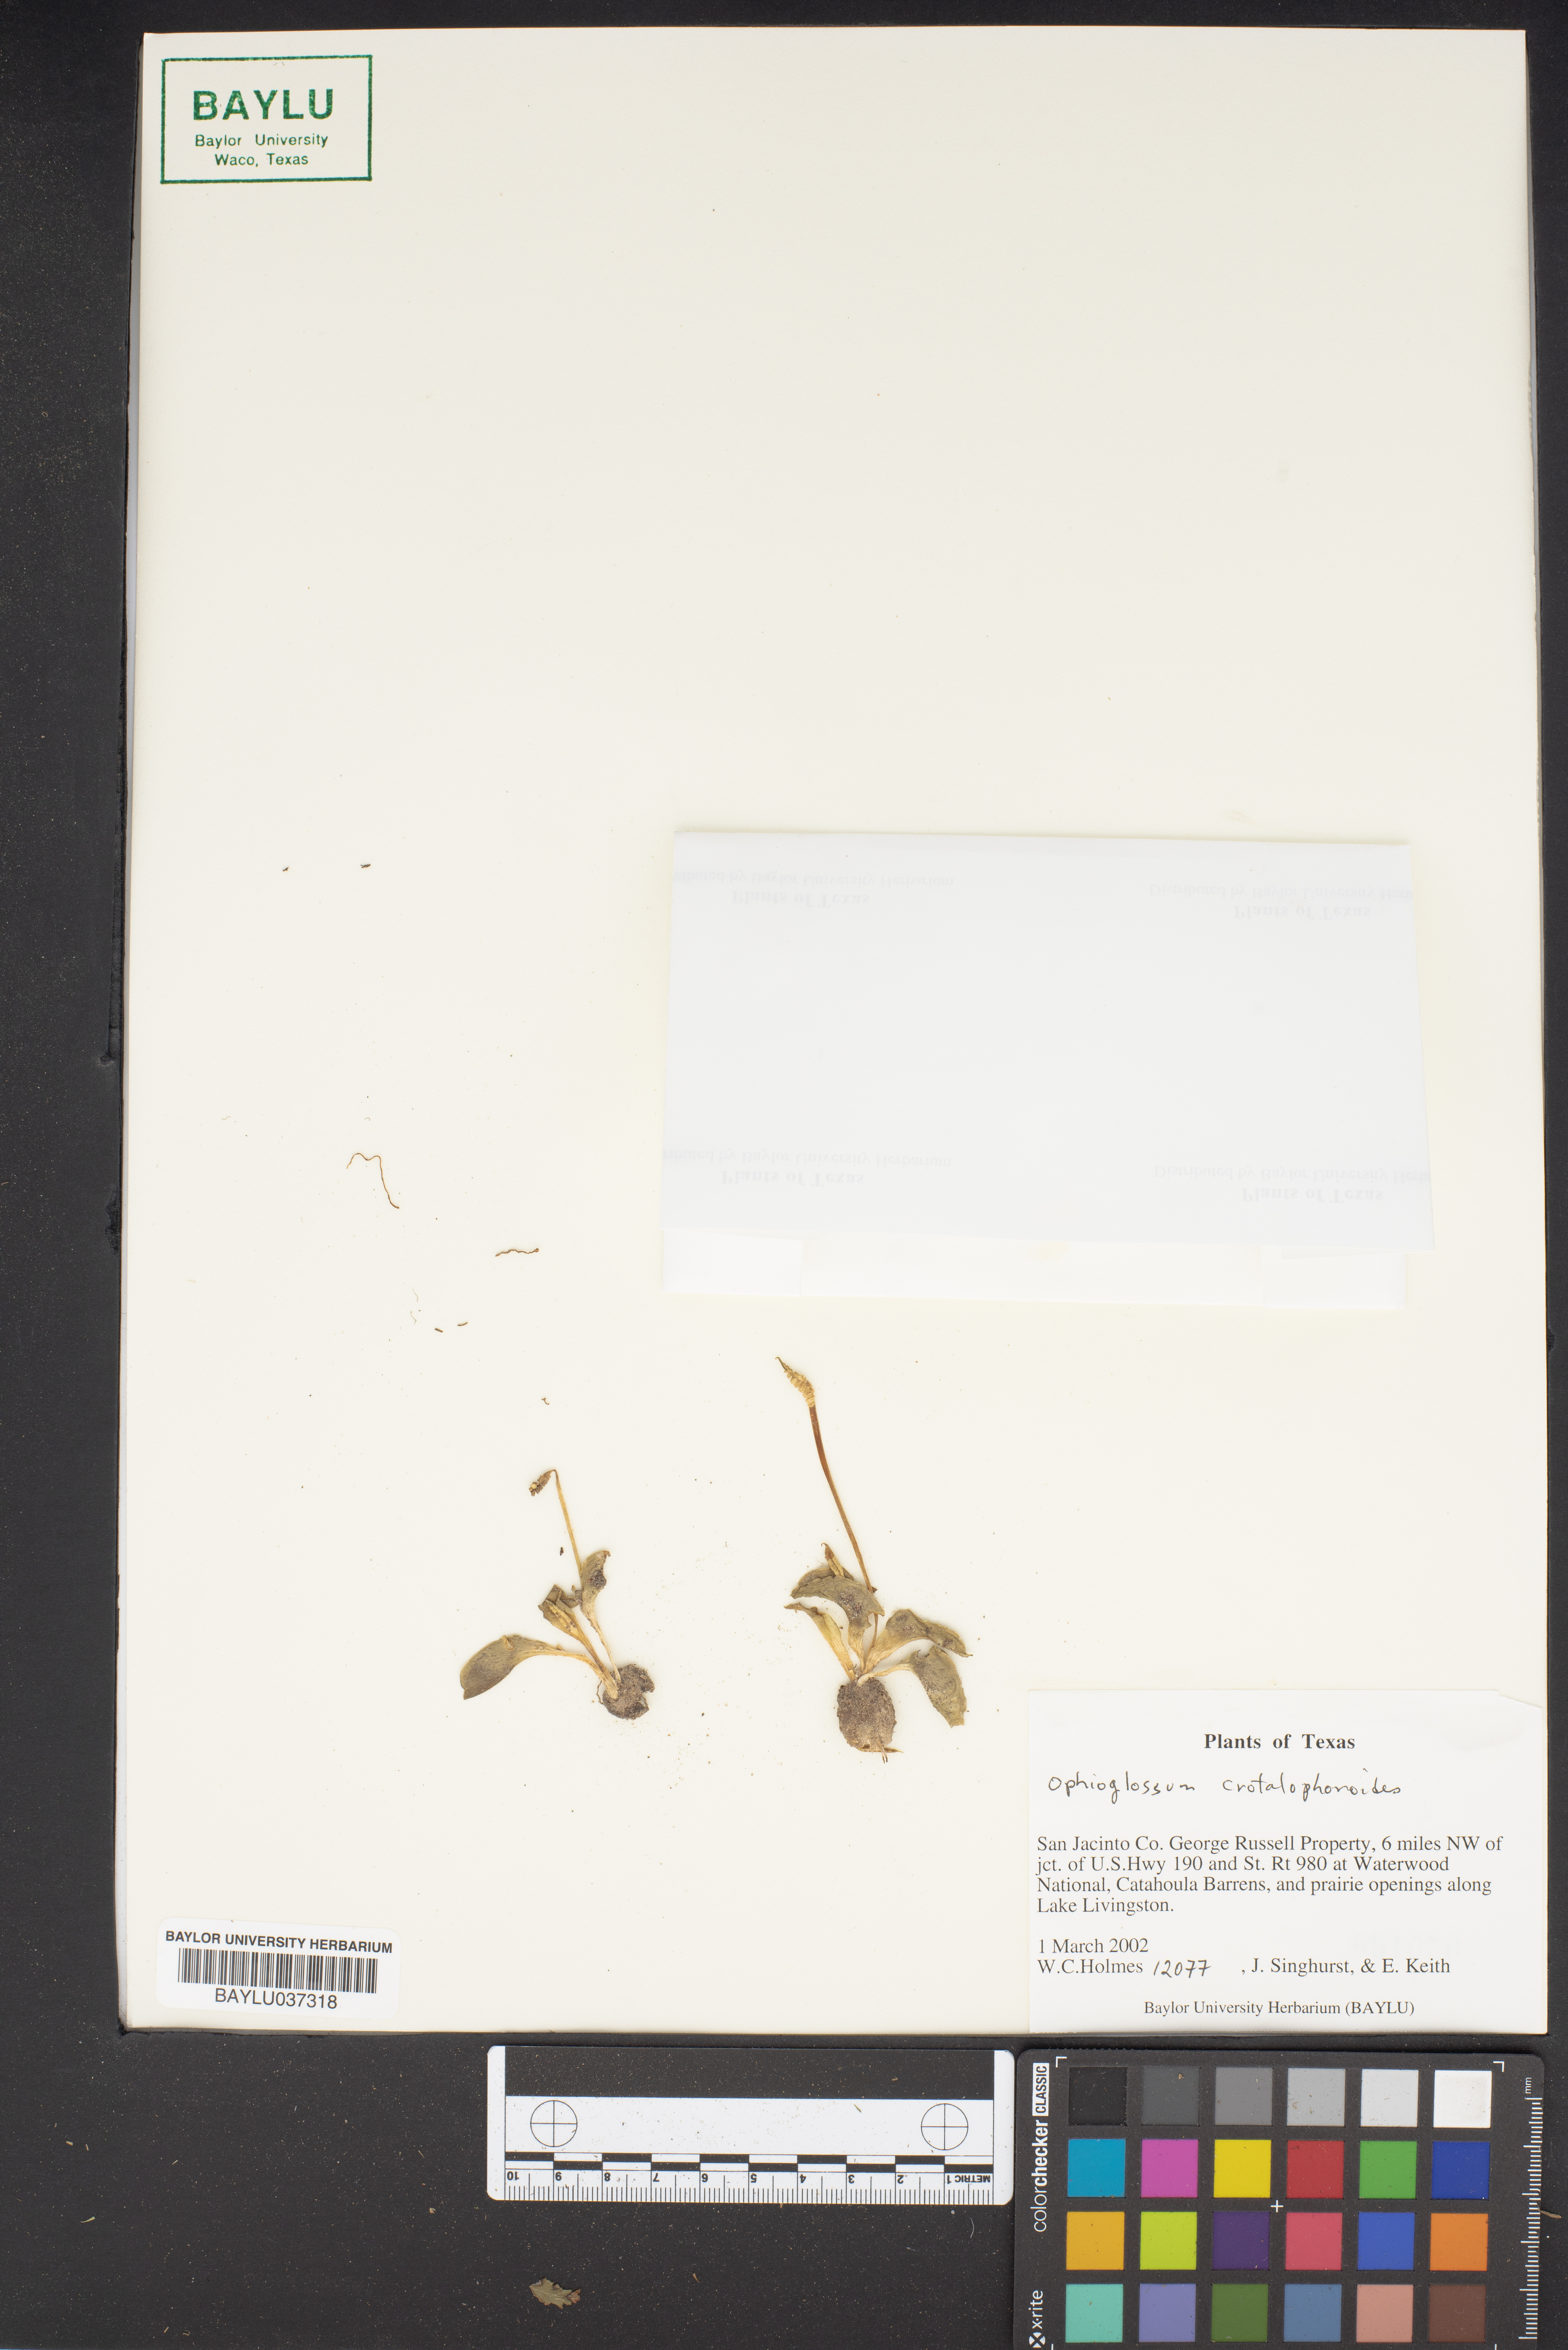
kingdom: Plantae
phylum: Tracheophyta
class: Polypodiopsida
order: Ophioglossales
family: Ophioglossaceae
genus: Ophioglossum
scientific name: Ophioglossum crotalophoroides
